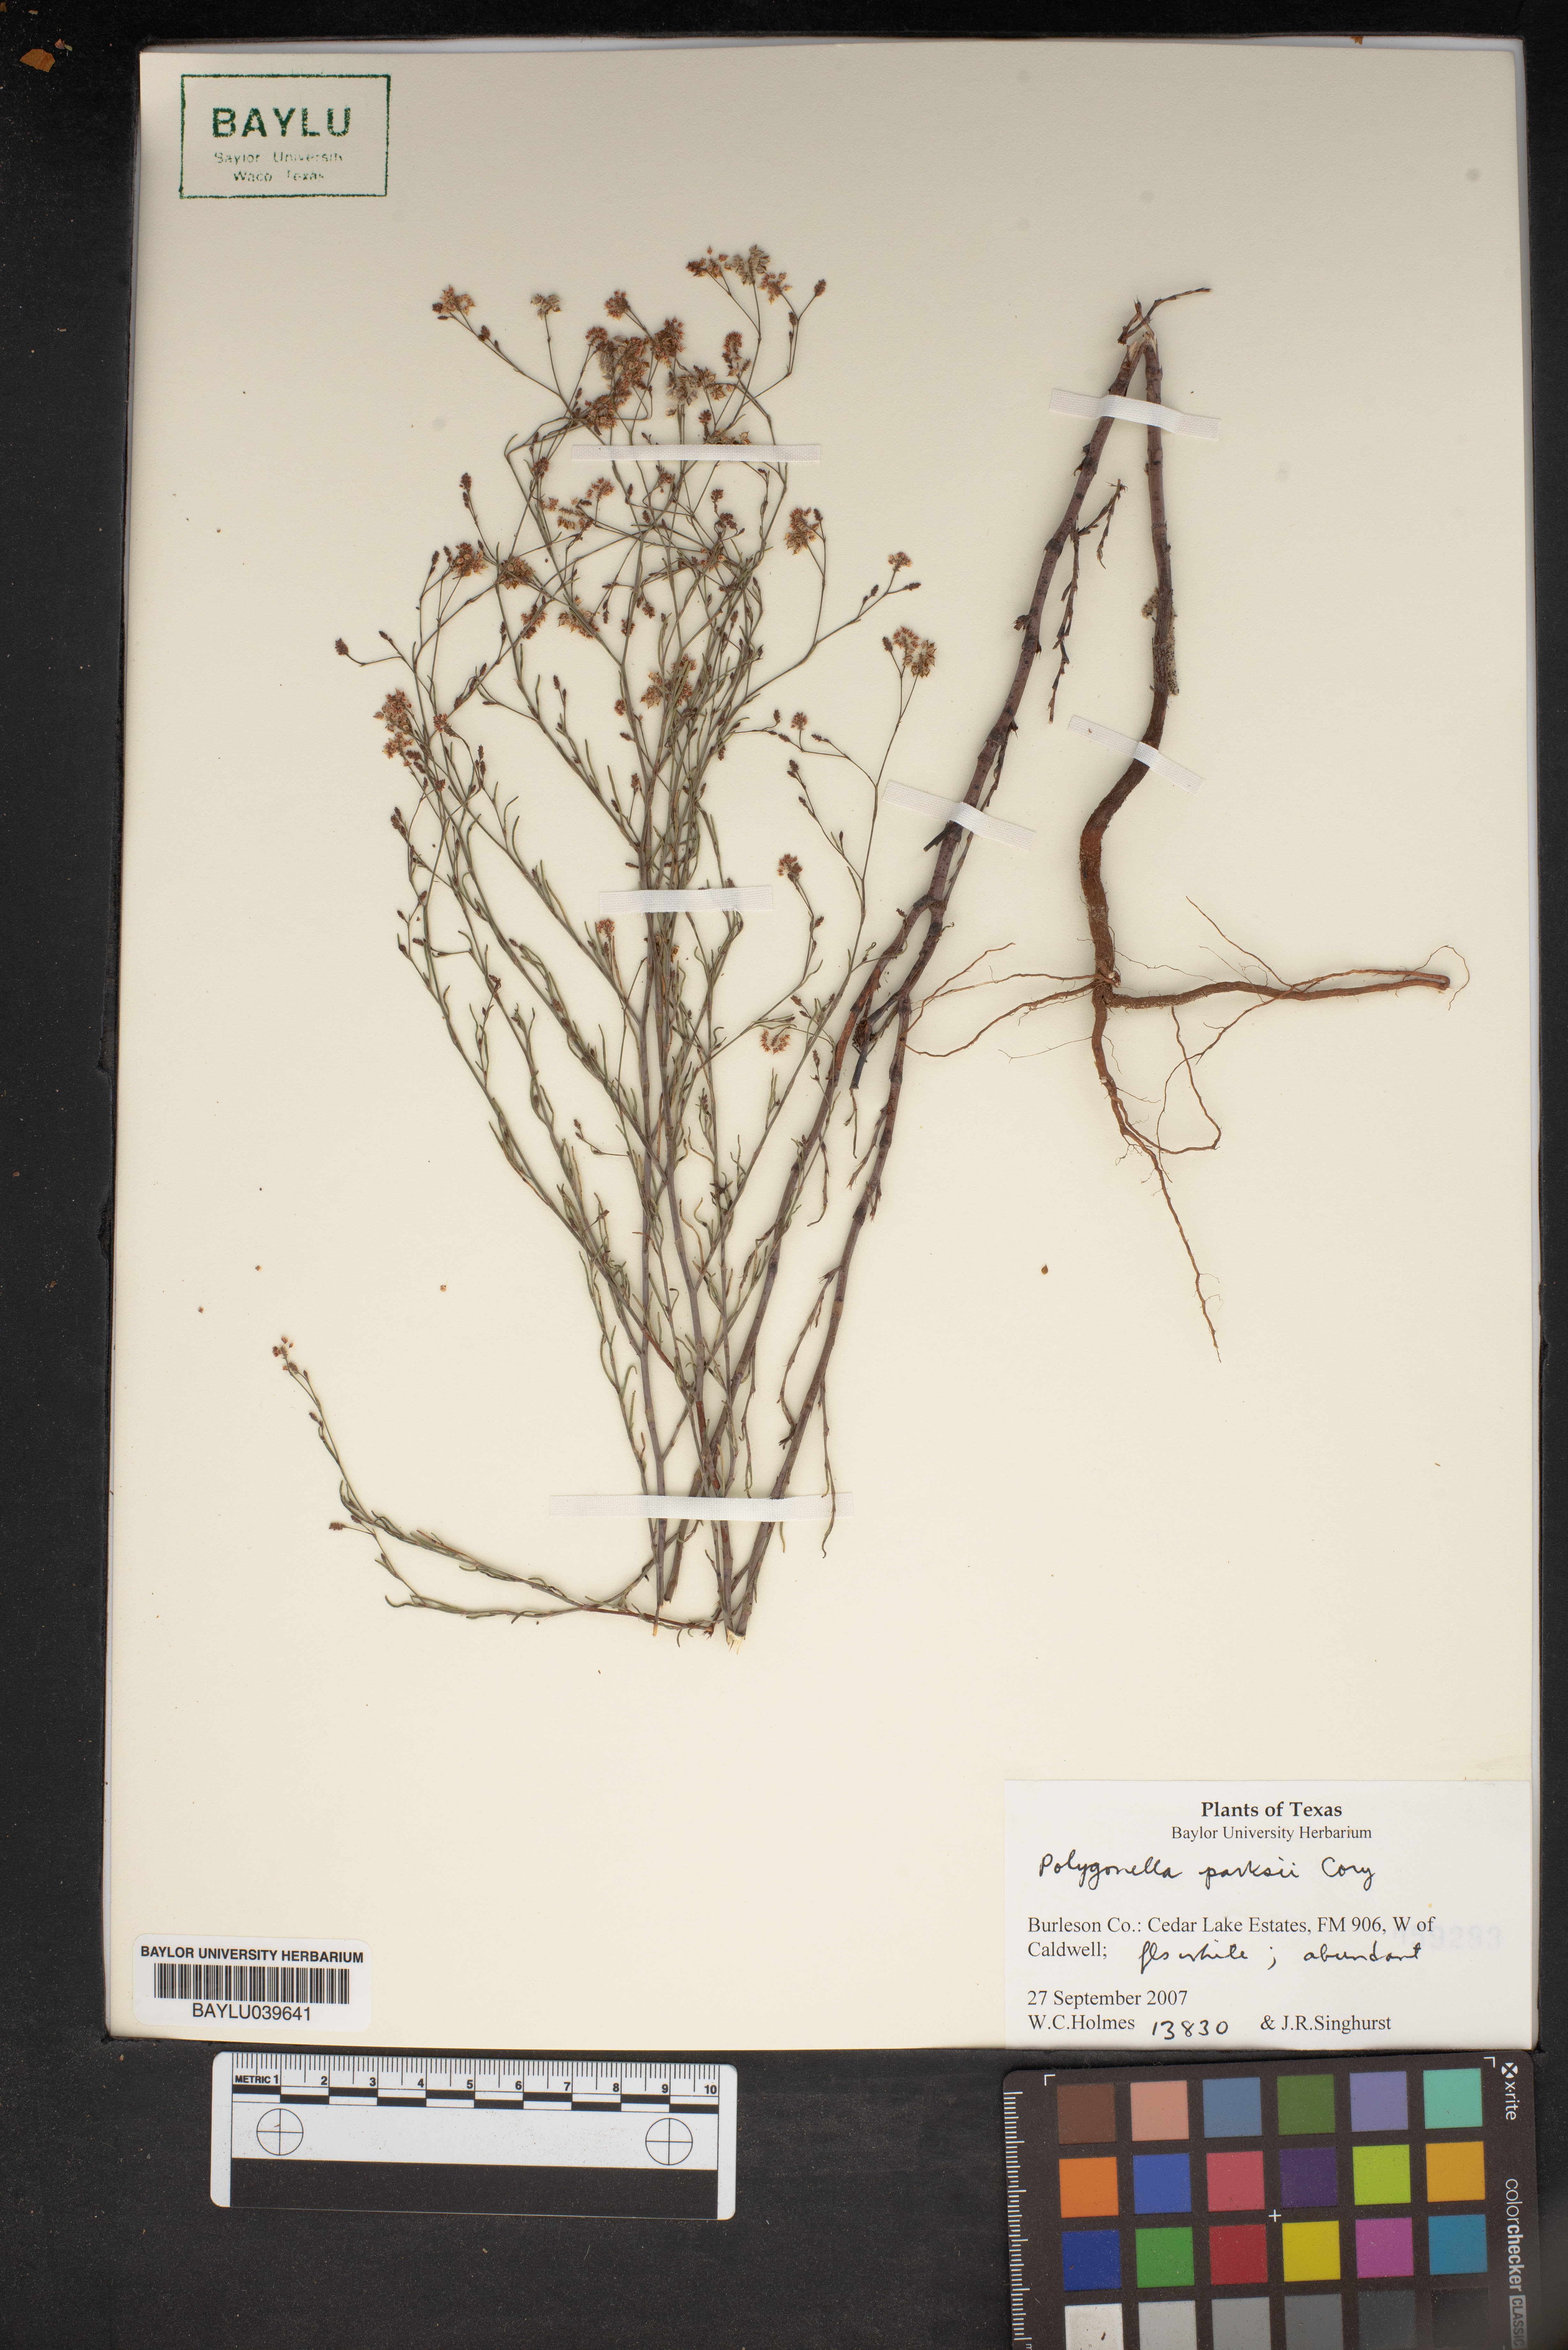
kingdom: Plantae
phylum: Tracheophyta
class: Magnoliopsida
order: Caryophyllales
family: Polygonaceae
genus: Polygonella
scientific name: Polygonella parksii
